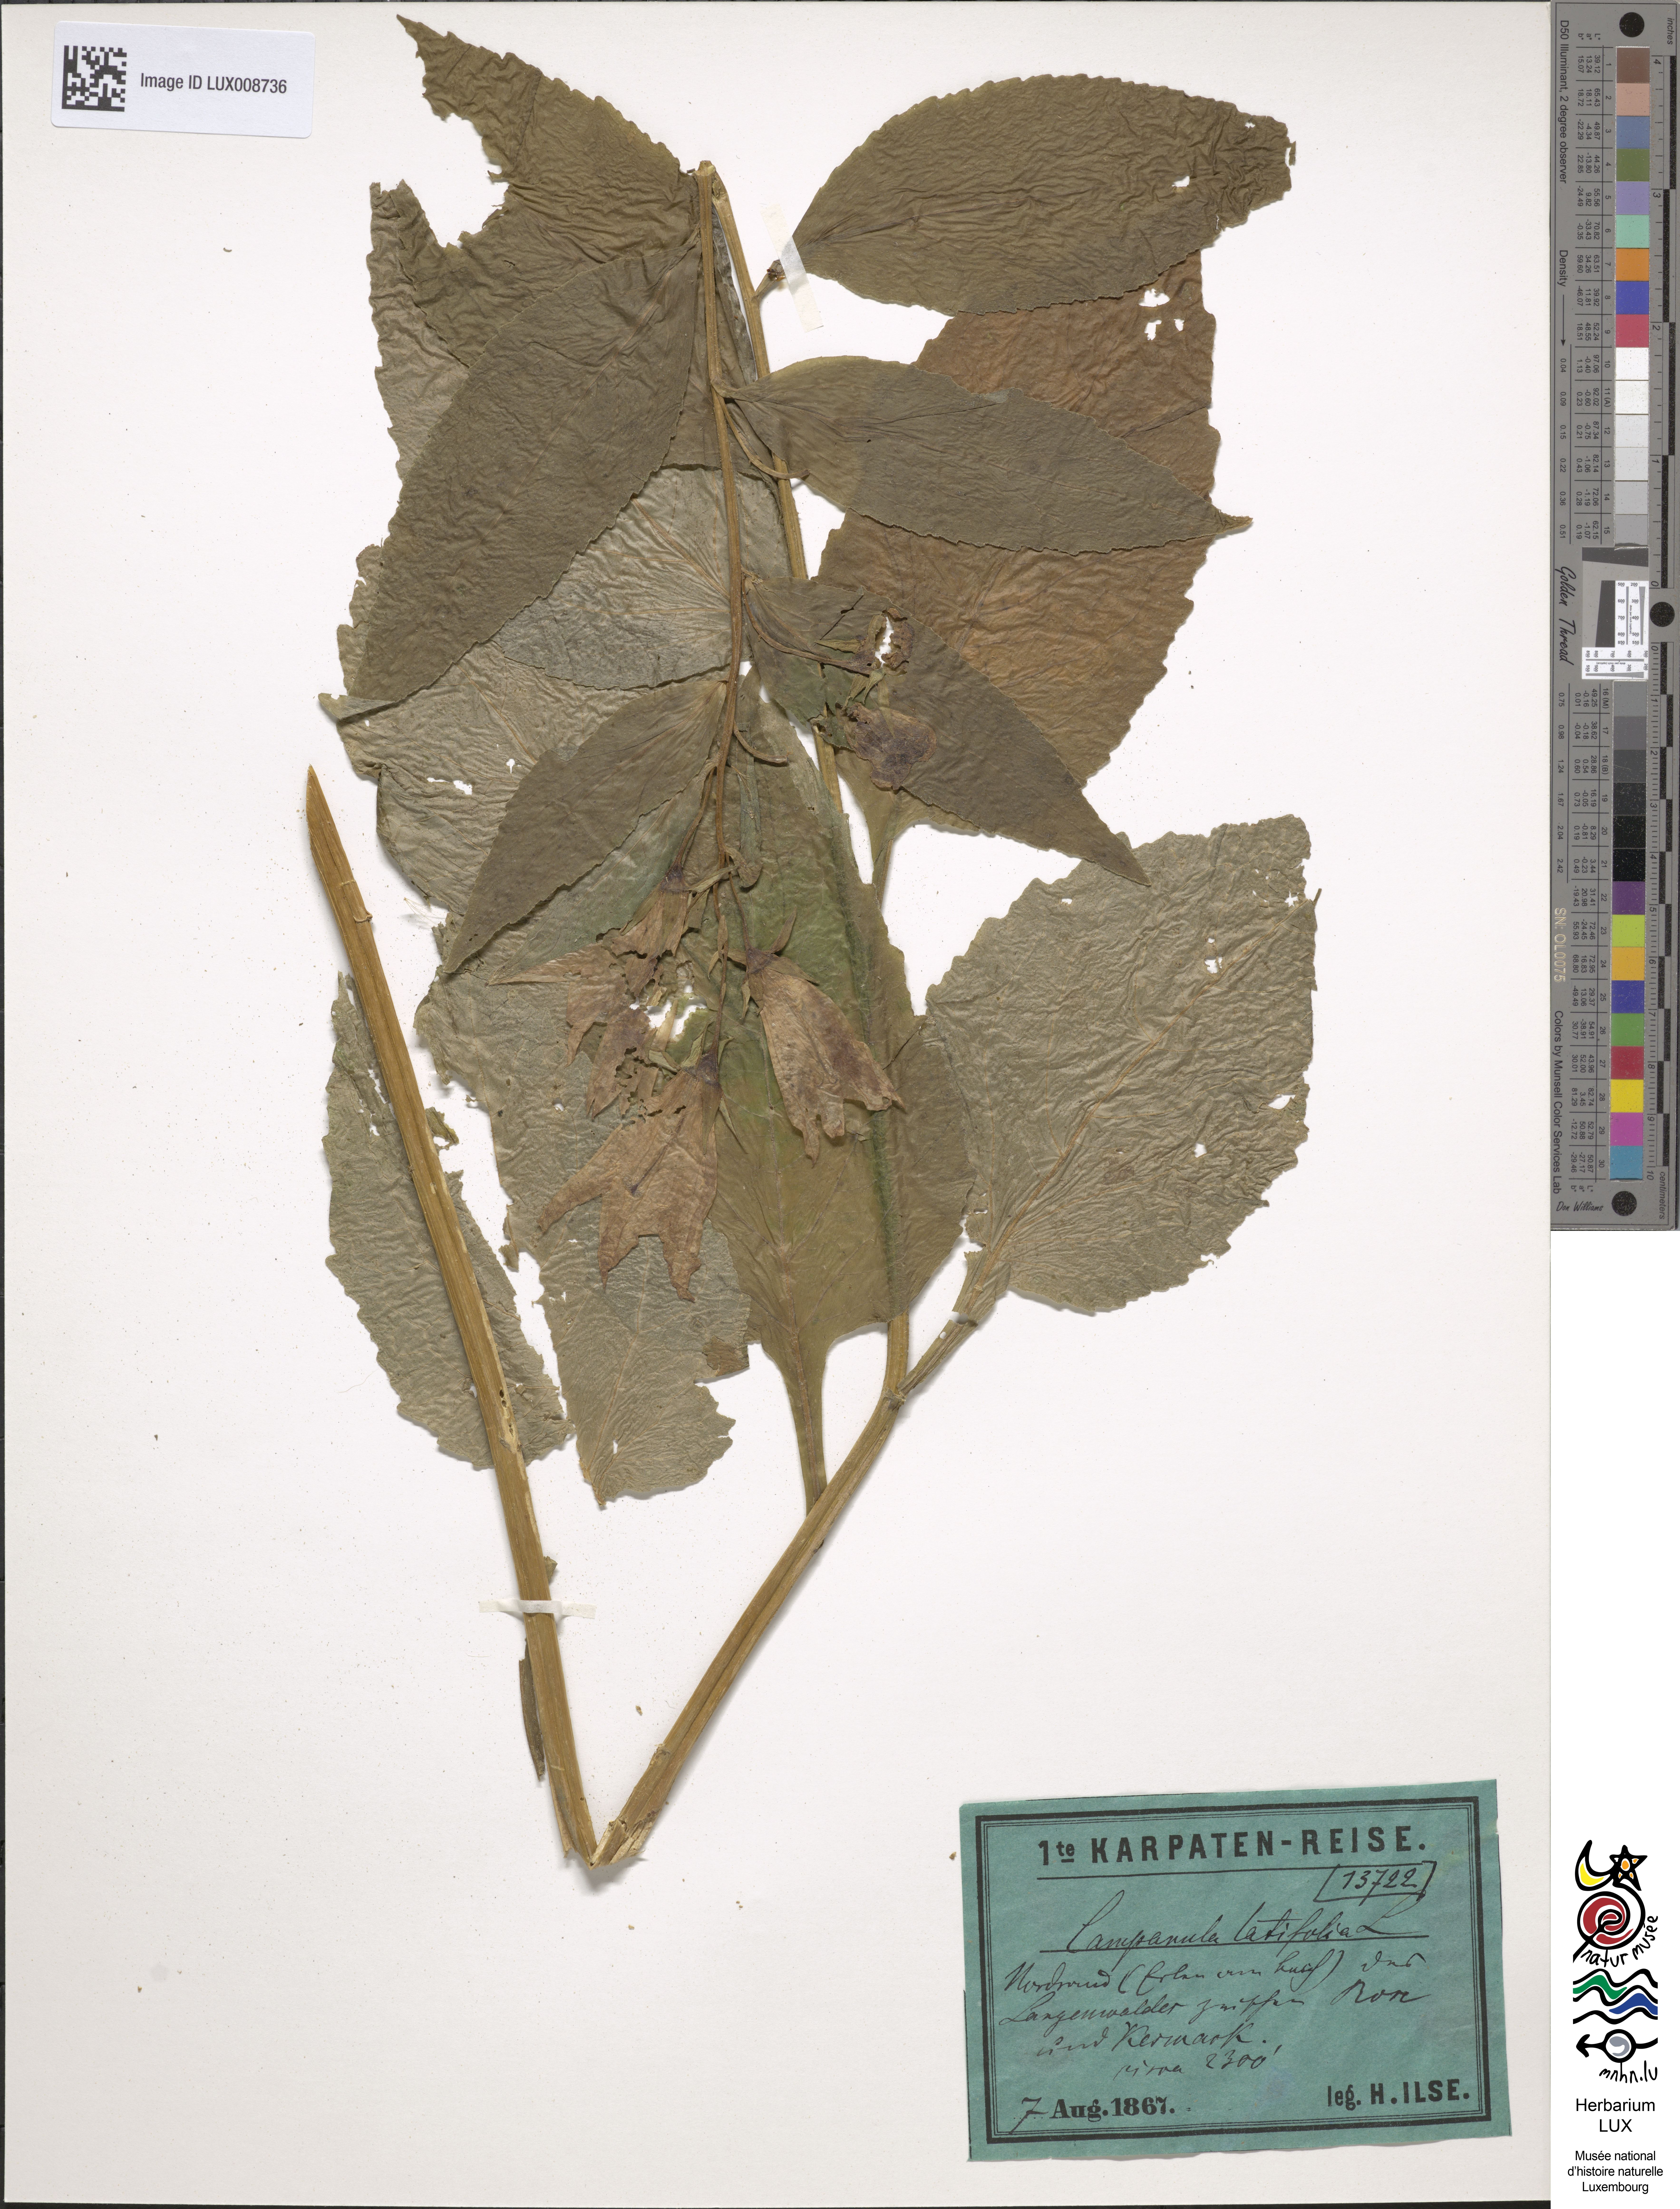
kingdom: Plantae
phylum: Tracheophyta
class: Magnoliopsida
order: Asterales
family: Campanulaceae
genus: Campanula
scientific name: Campanula latifolia
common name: Giant bellflower
